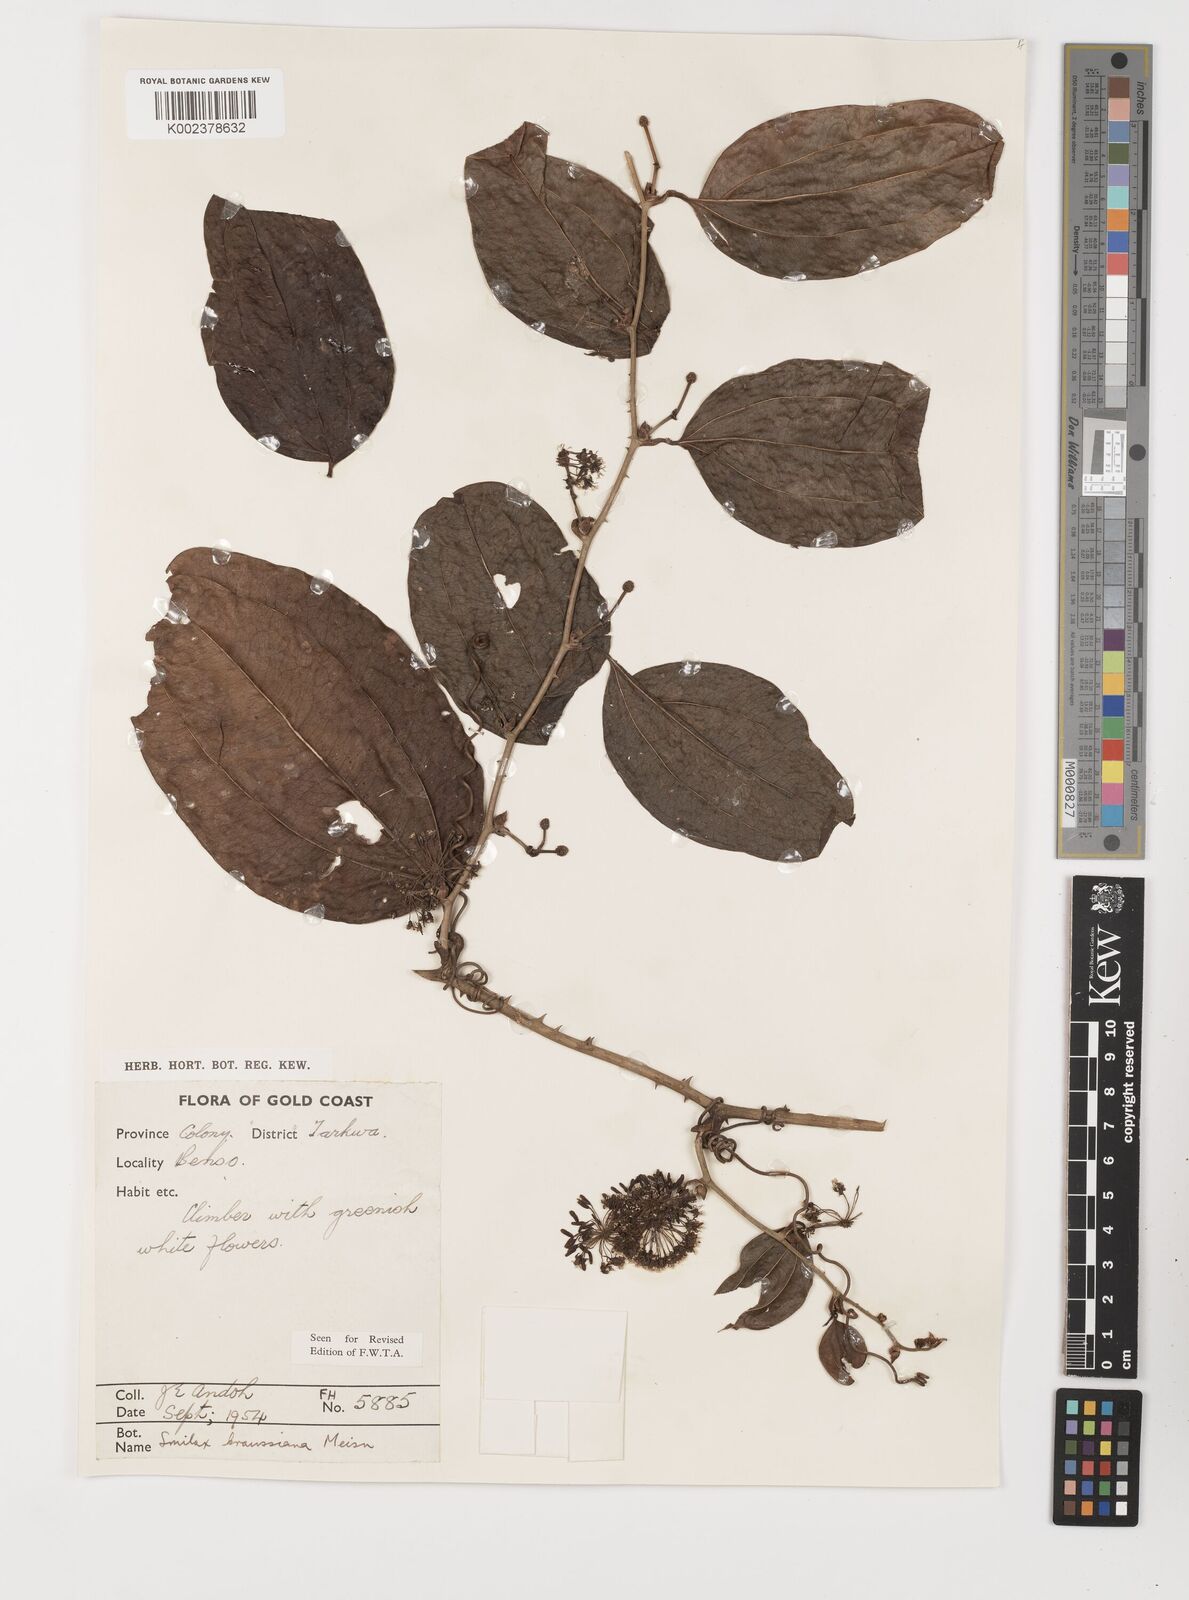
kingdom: Plantae
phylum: Tracheophyta
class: Liliopsida
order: Liliales
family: Smilacaceae
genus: Smilax
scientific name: Smilax anceps
